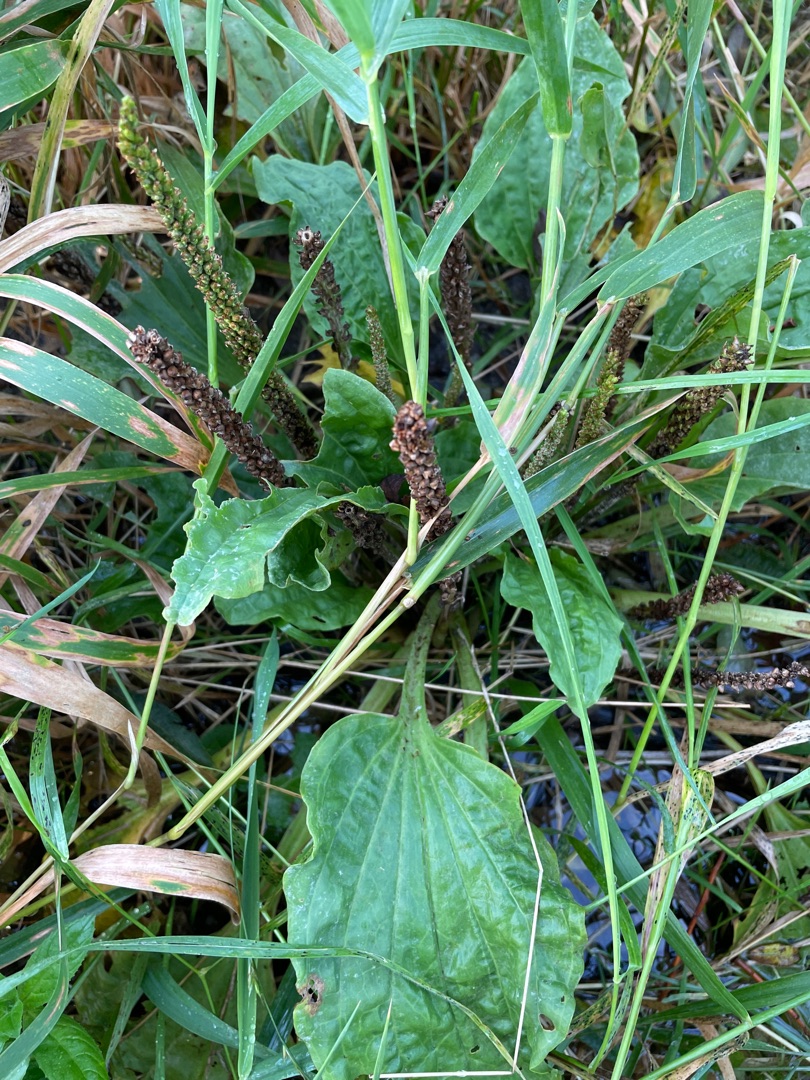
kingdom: Plantae
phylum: Tracheophyta
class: Magnoliopsida
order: Lamiales
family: Plantaginaceae
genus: Plantago
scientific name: Plantago major
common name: Glat vejbred
